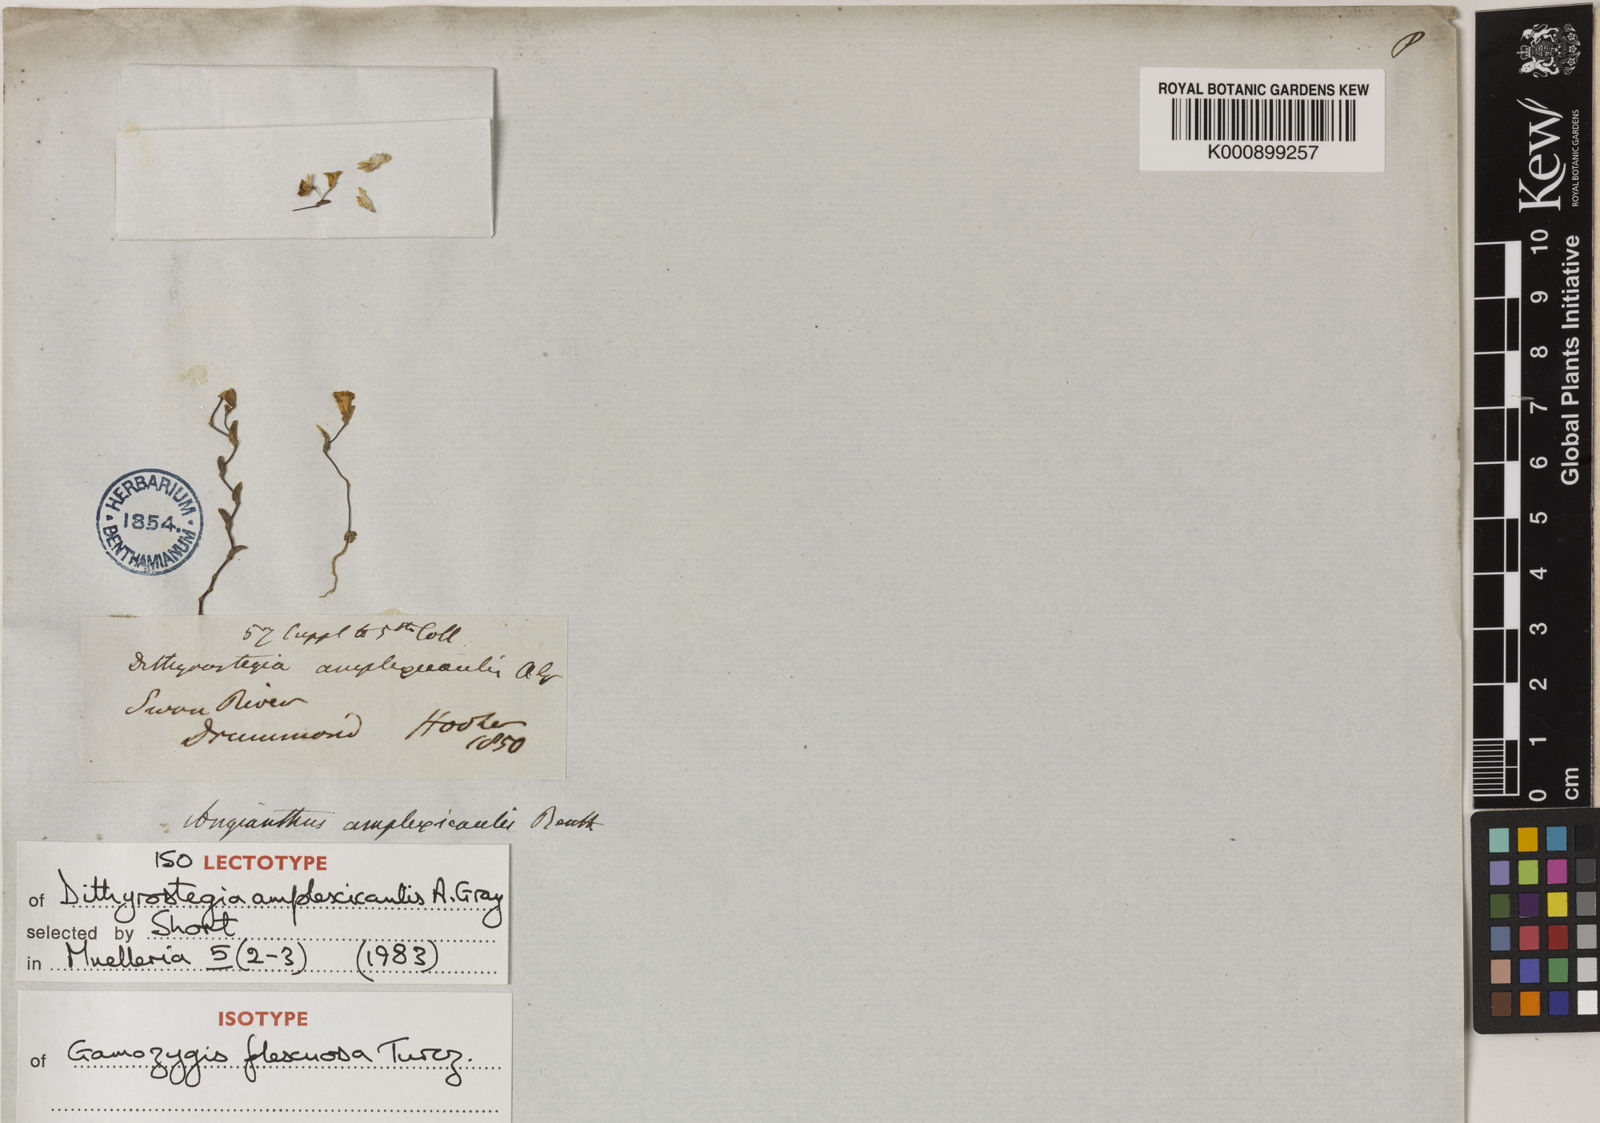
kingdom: Plantae
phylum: Tracheophyta
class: Magnoliopsida
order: Asterales
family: Asteraceae
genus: Dithyrostegia
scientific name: Dithyrostegia amplexicaulis
